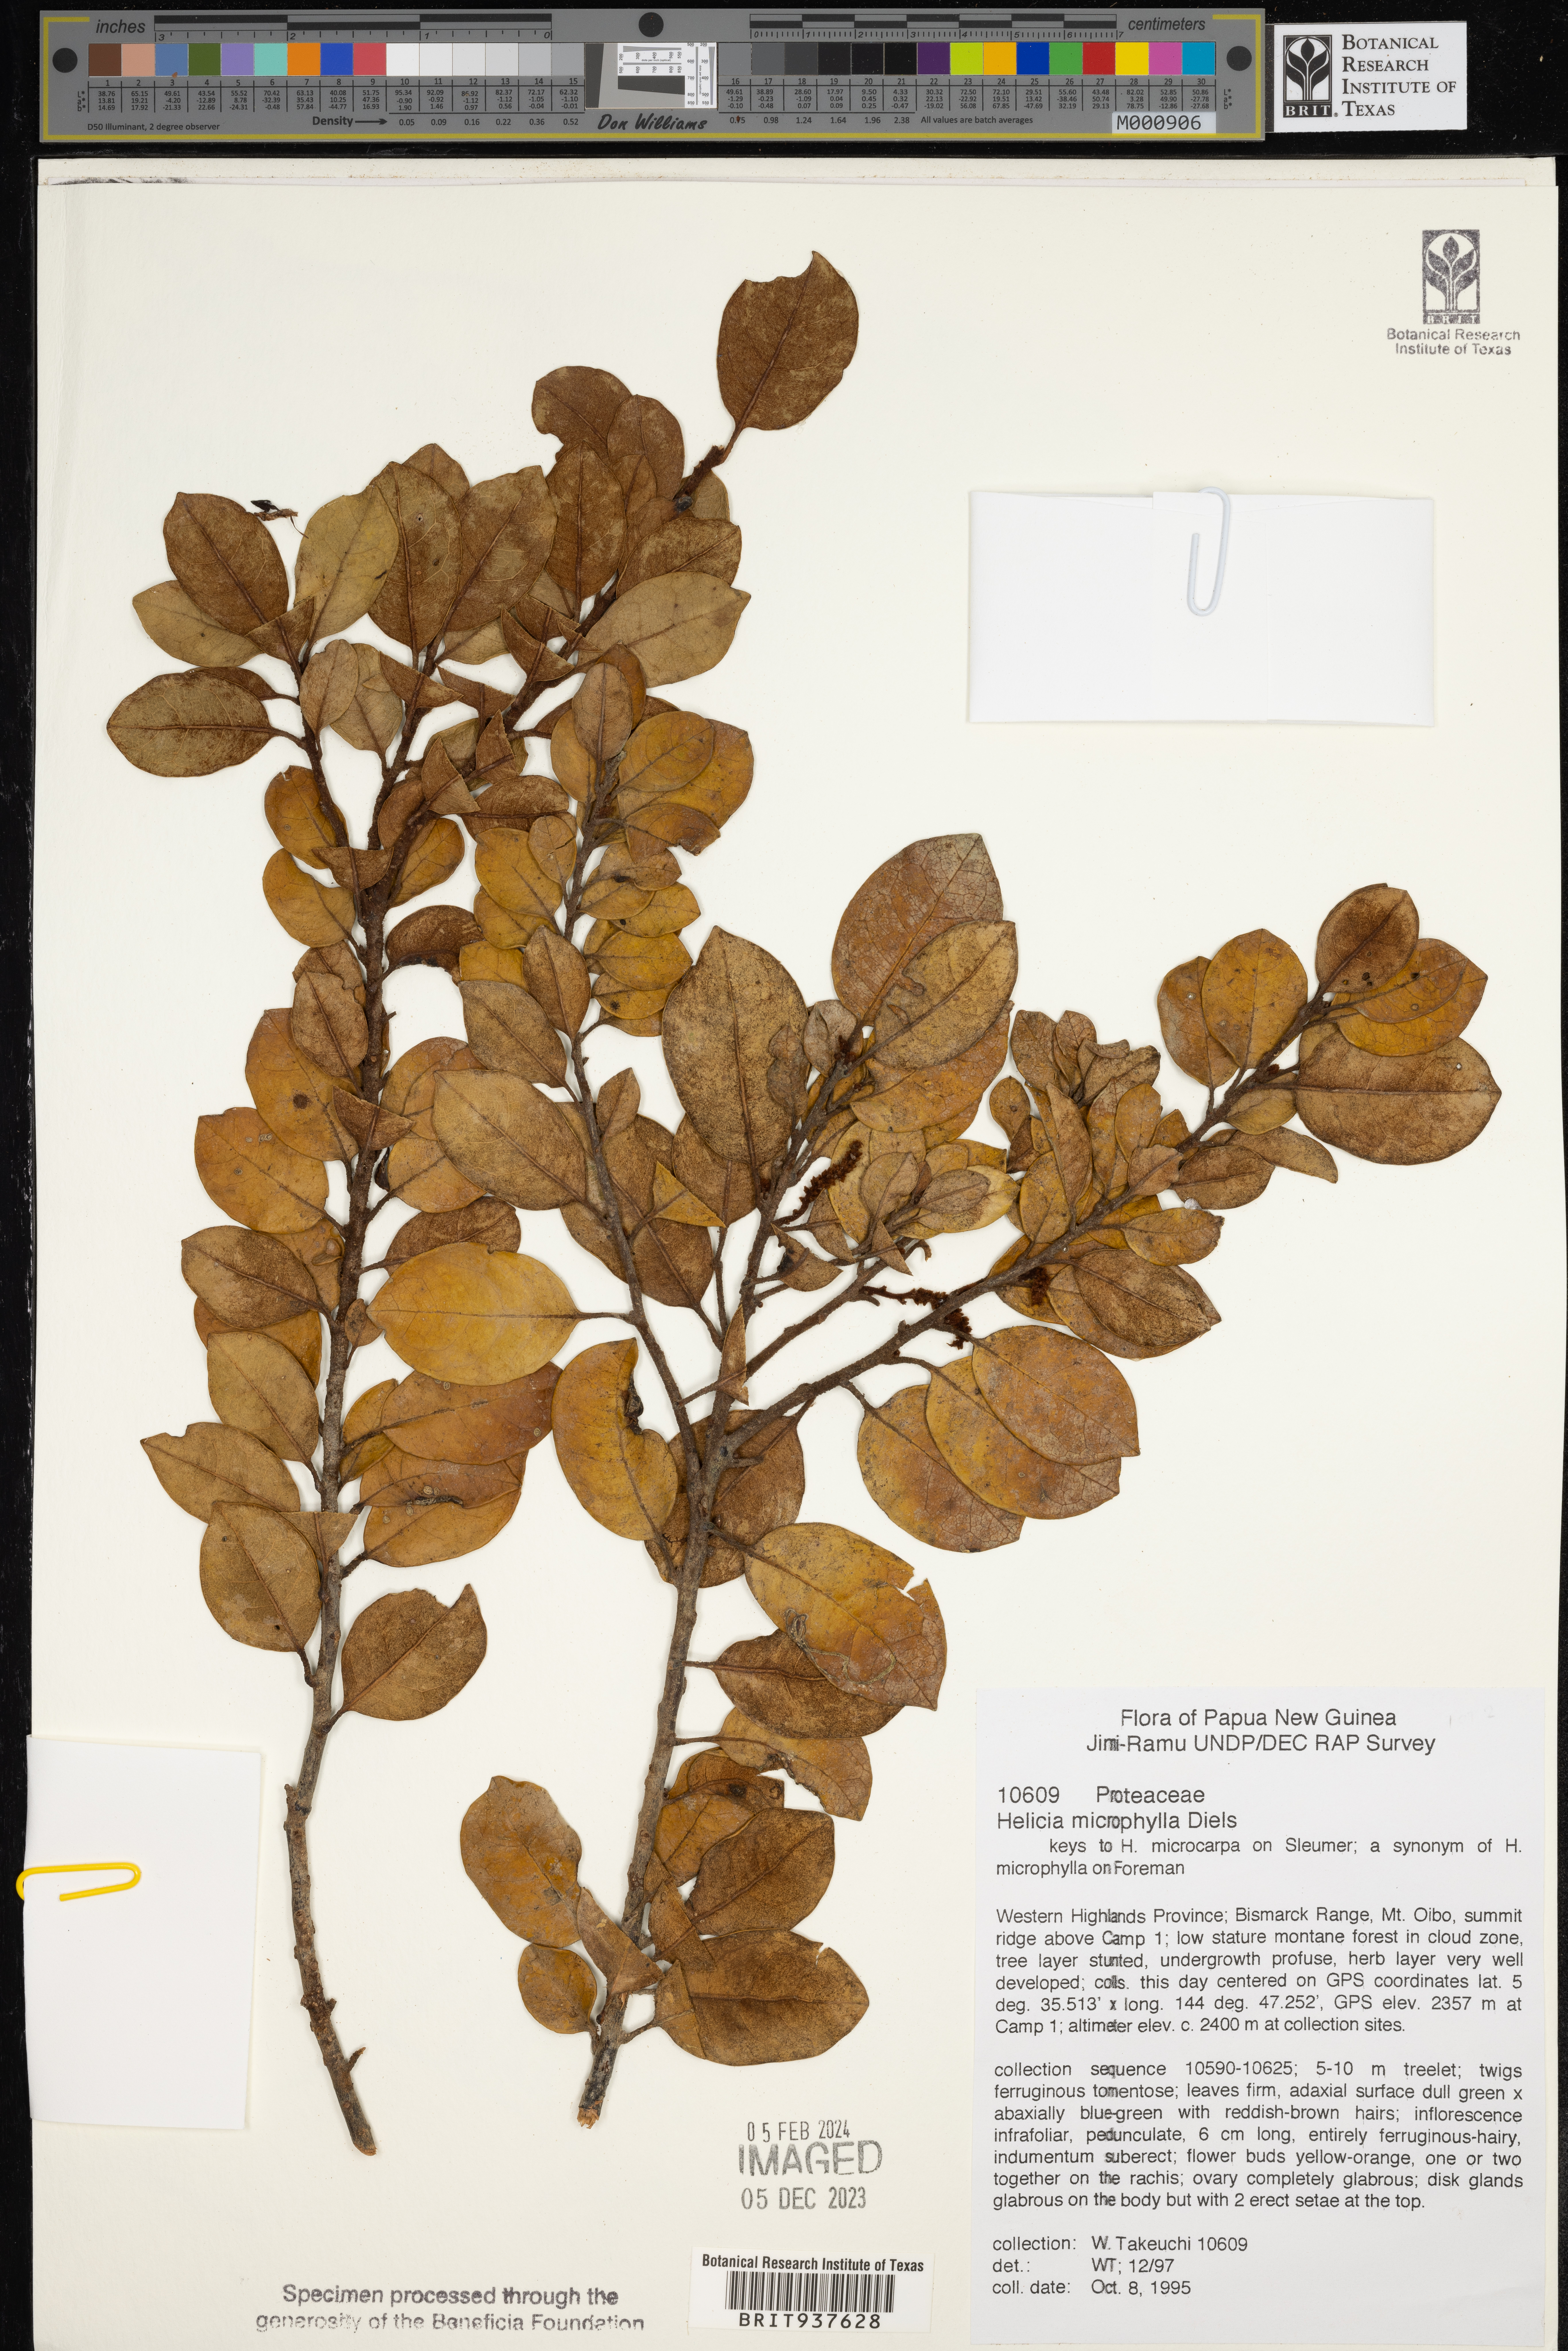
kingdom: Plantae
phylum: Tracheophyta
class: Magnoliopsida
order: Proteales
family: Proteaceae
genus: Helicia
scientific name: Helicia
